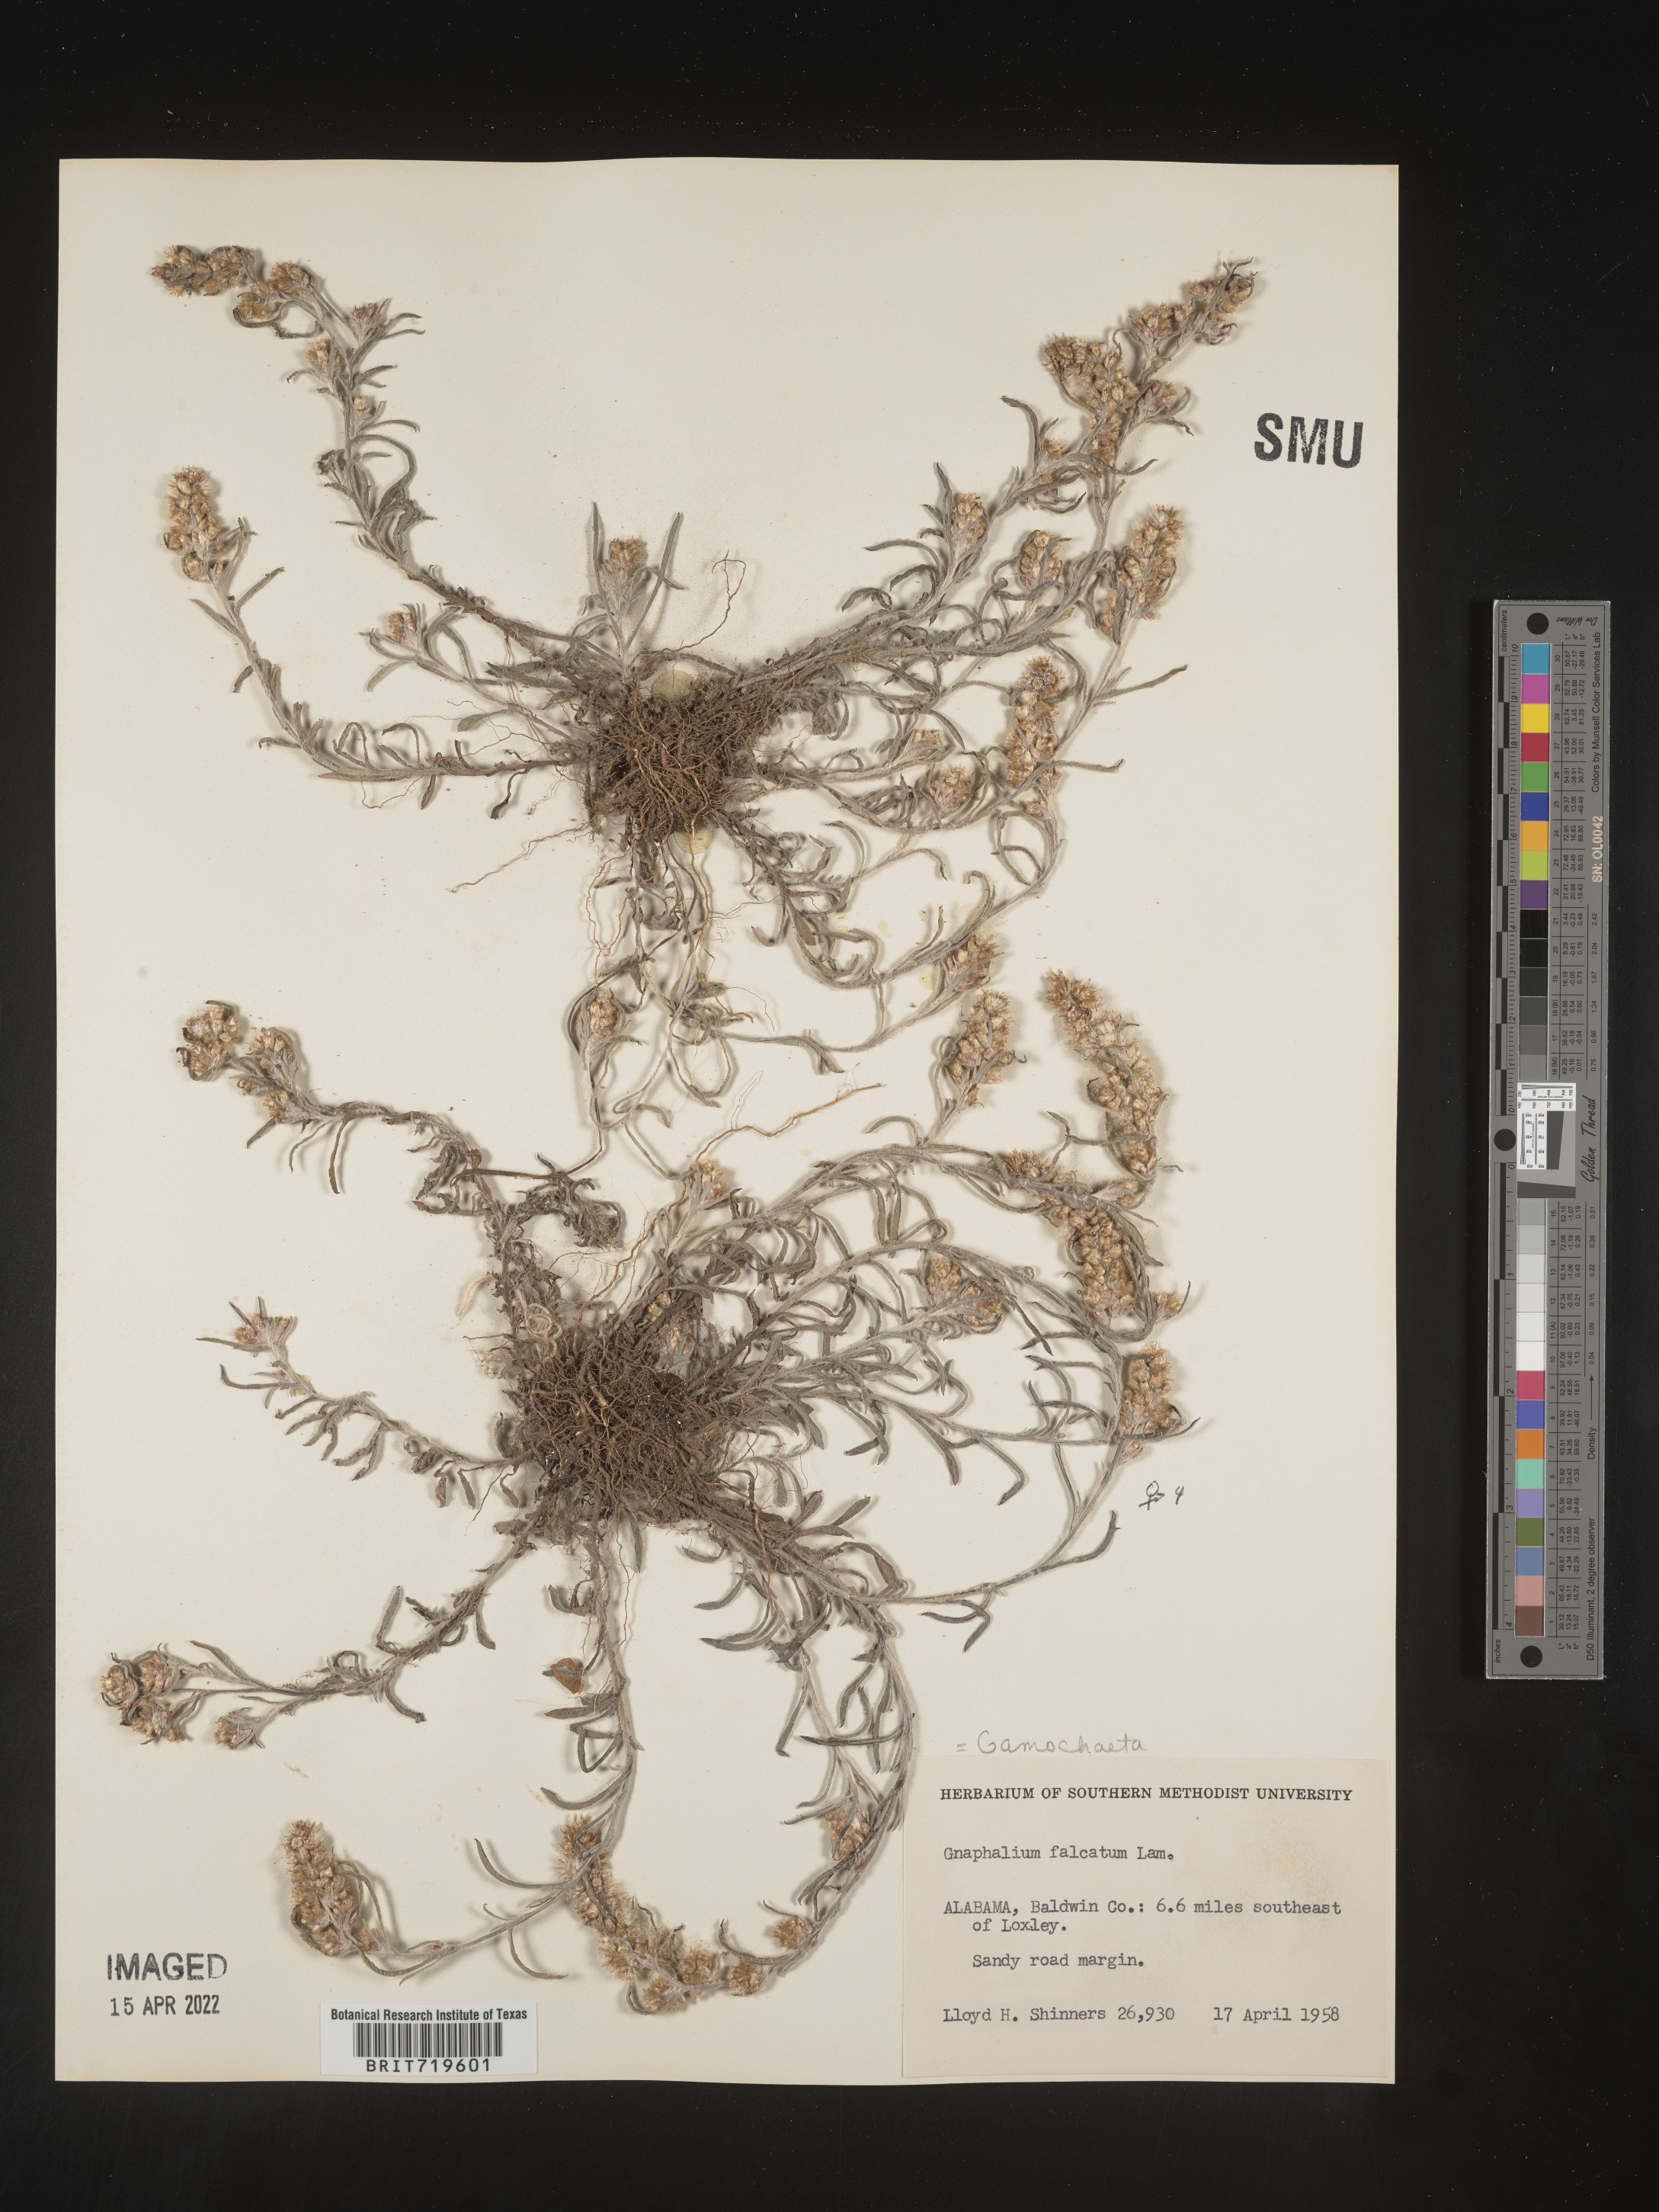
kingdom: Plantae
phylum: Tracheophyta
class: Magnoliopsida
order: Asterales
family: Asteraceae
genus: Gamochaeta
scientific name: Gamochaeta antillana
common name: Delicate everlasting
